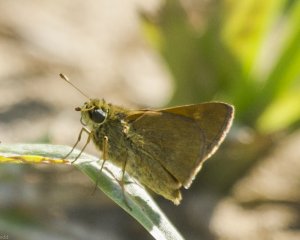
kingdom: Animalia
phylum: Arthropoda
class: Insecta
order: Lepidoptera
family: Hesperiidae
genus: Polites
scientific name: Polites themistocles
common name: Tawny-edged Skipper
